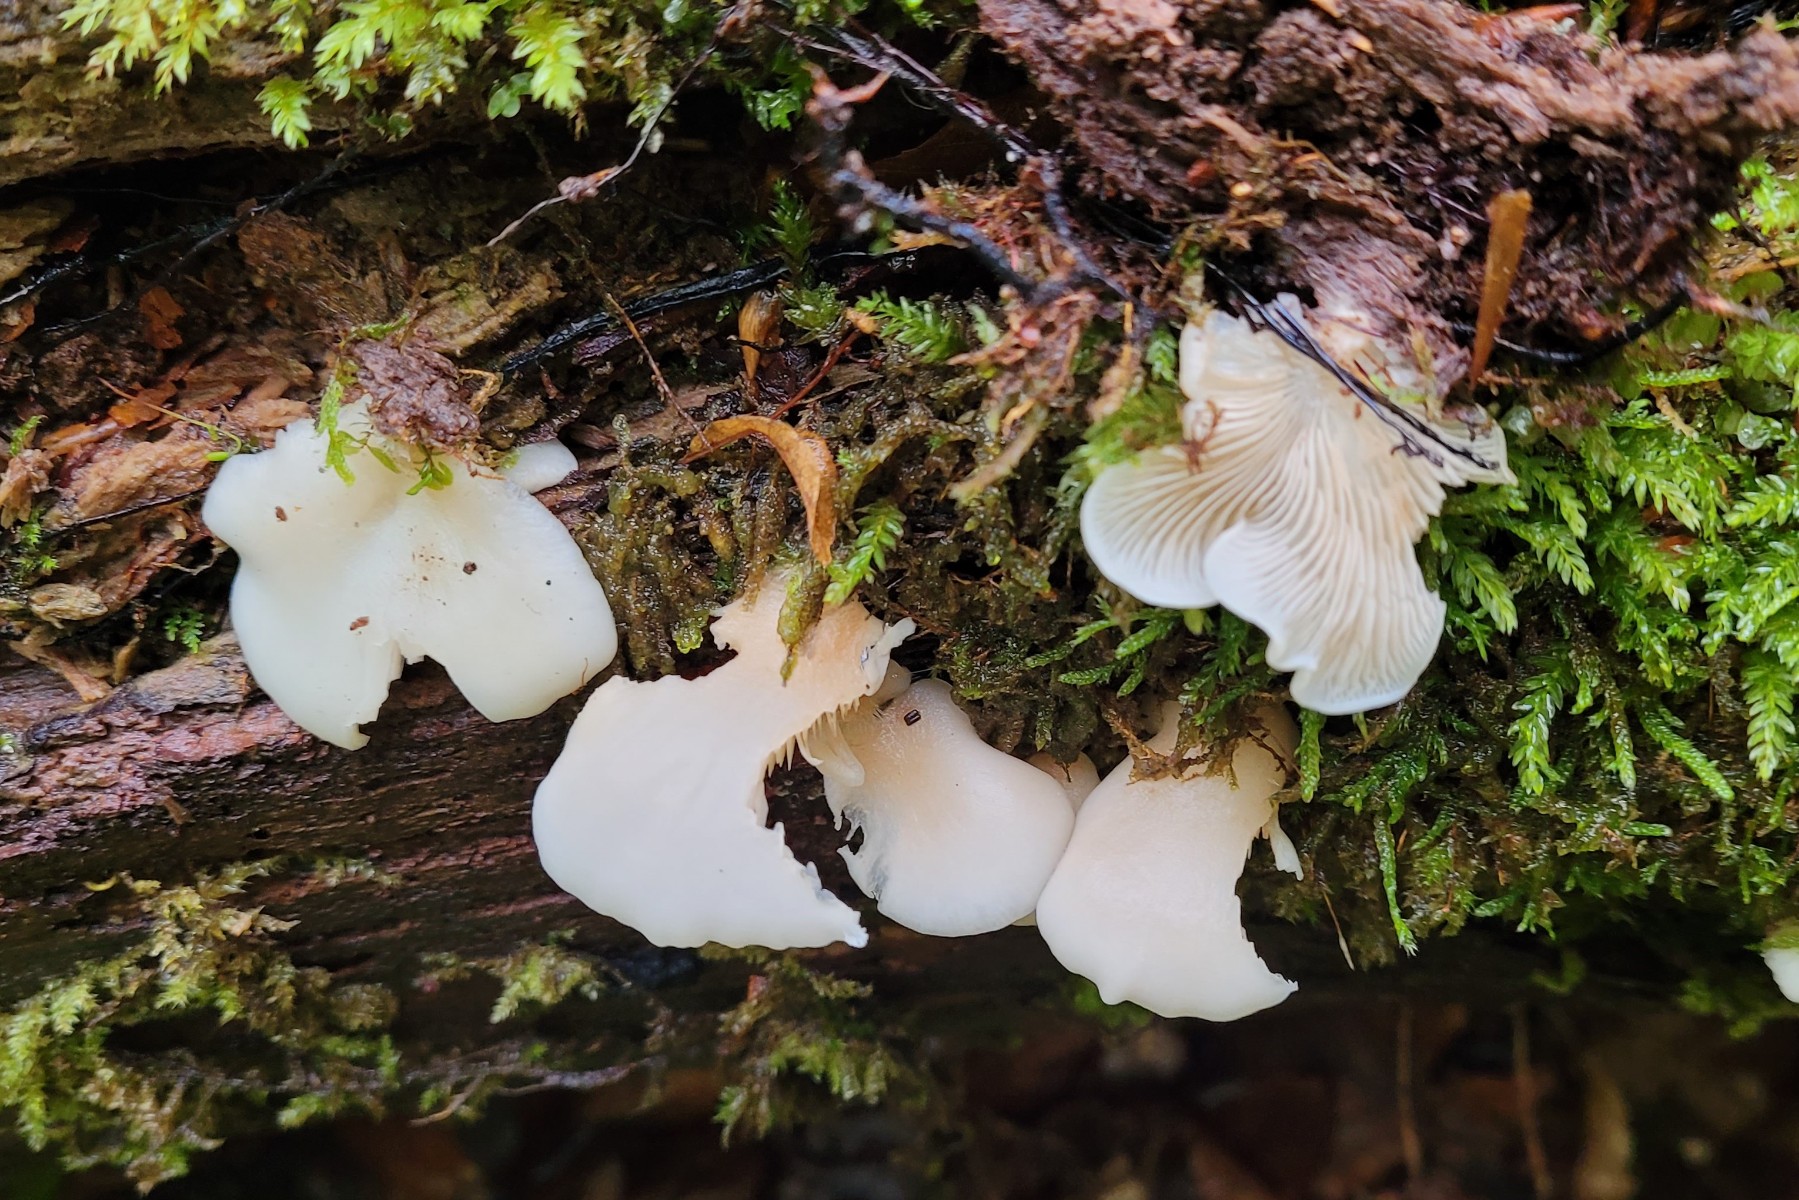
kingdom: Fungi
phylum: Basidiomycota
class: Agaricomycetes
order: Agaricales
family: Crepidotaceae
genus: Crepidotus
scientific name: Crepidotus applanatus
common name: tvefarvet muslingesvamp
